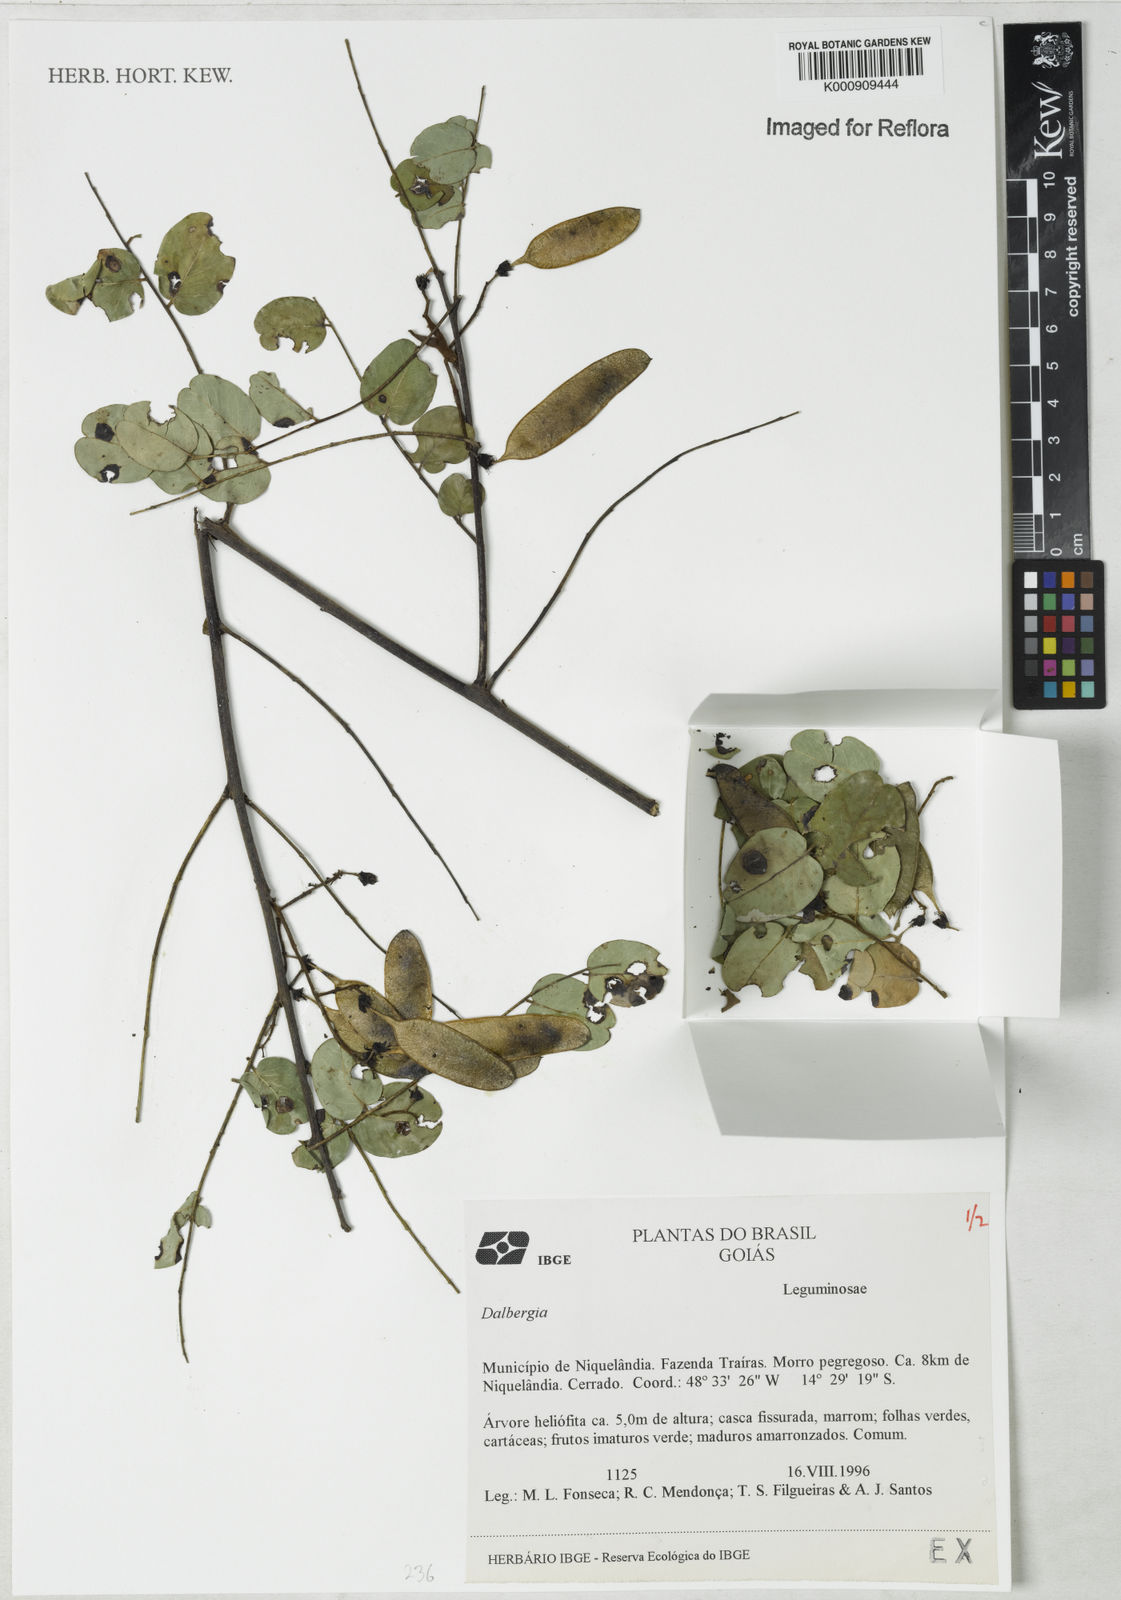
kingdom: Plantae
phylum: Tracheophyta
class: Magnoliopsida
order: Fabales
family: Fabaceae
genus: Dalbergia
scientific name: Dalbergia
